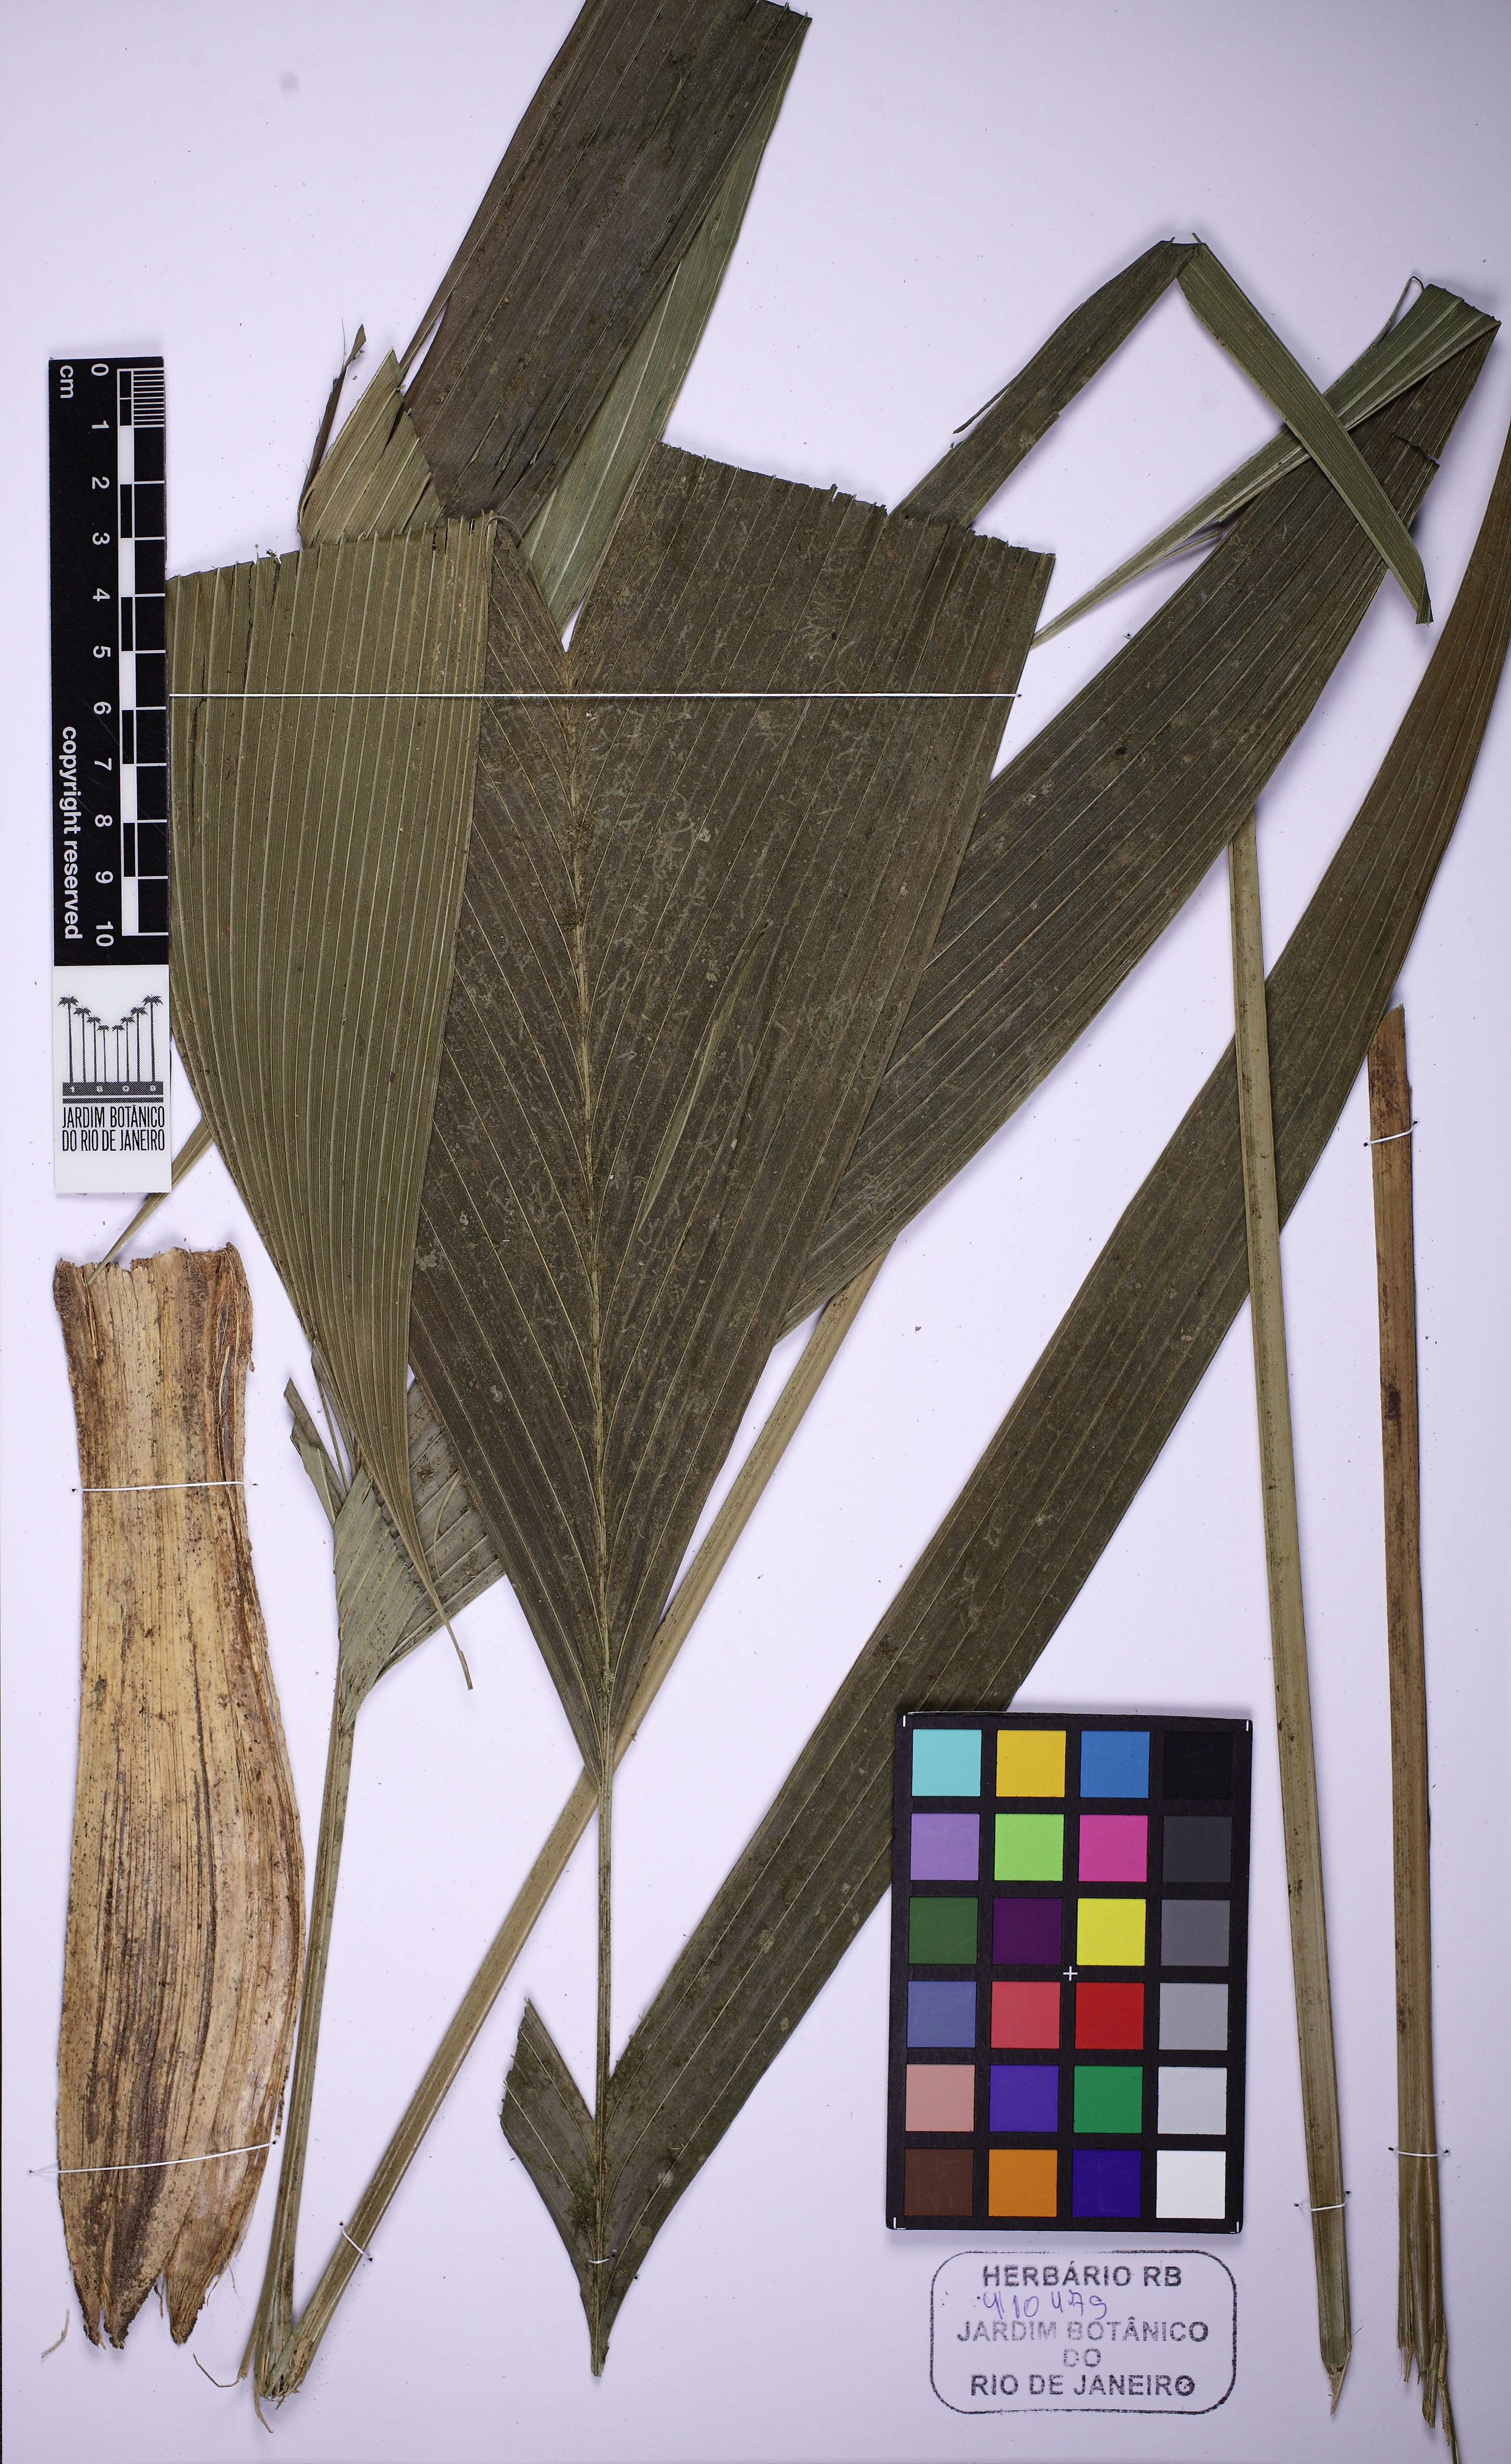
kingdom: Plantae
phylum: Tracheophyta
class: Liliopsida
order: Arecales
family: Arecaceae
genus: Geonoma
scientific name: Geonoma pohliana
